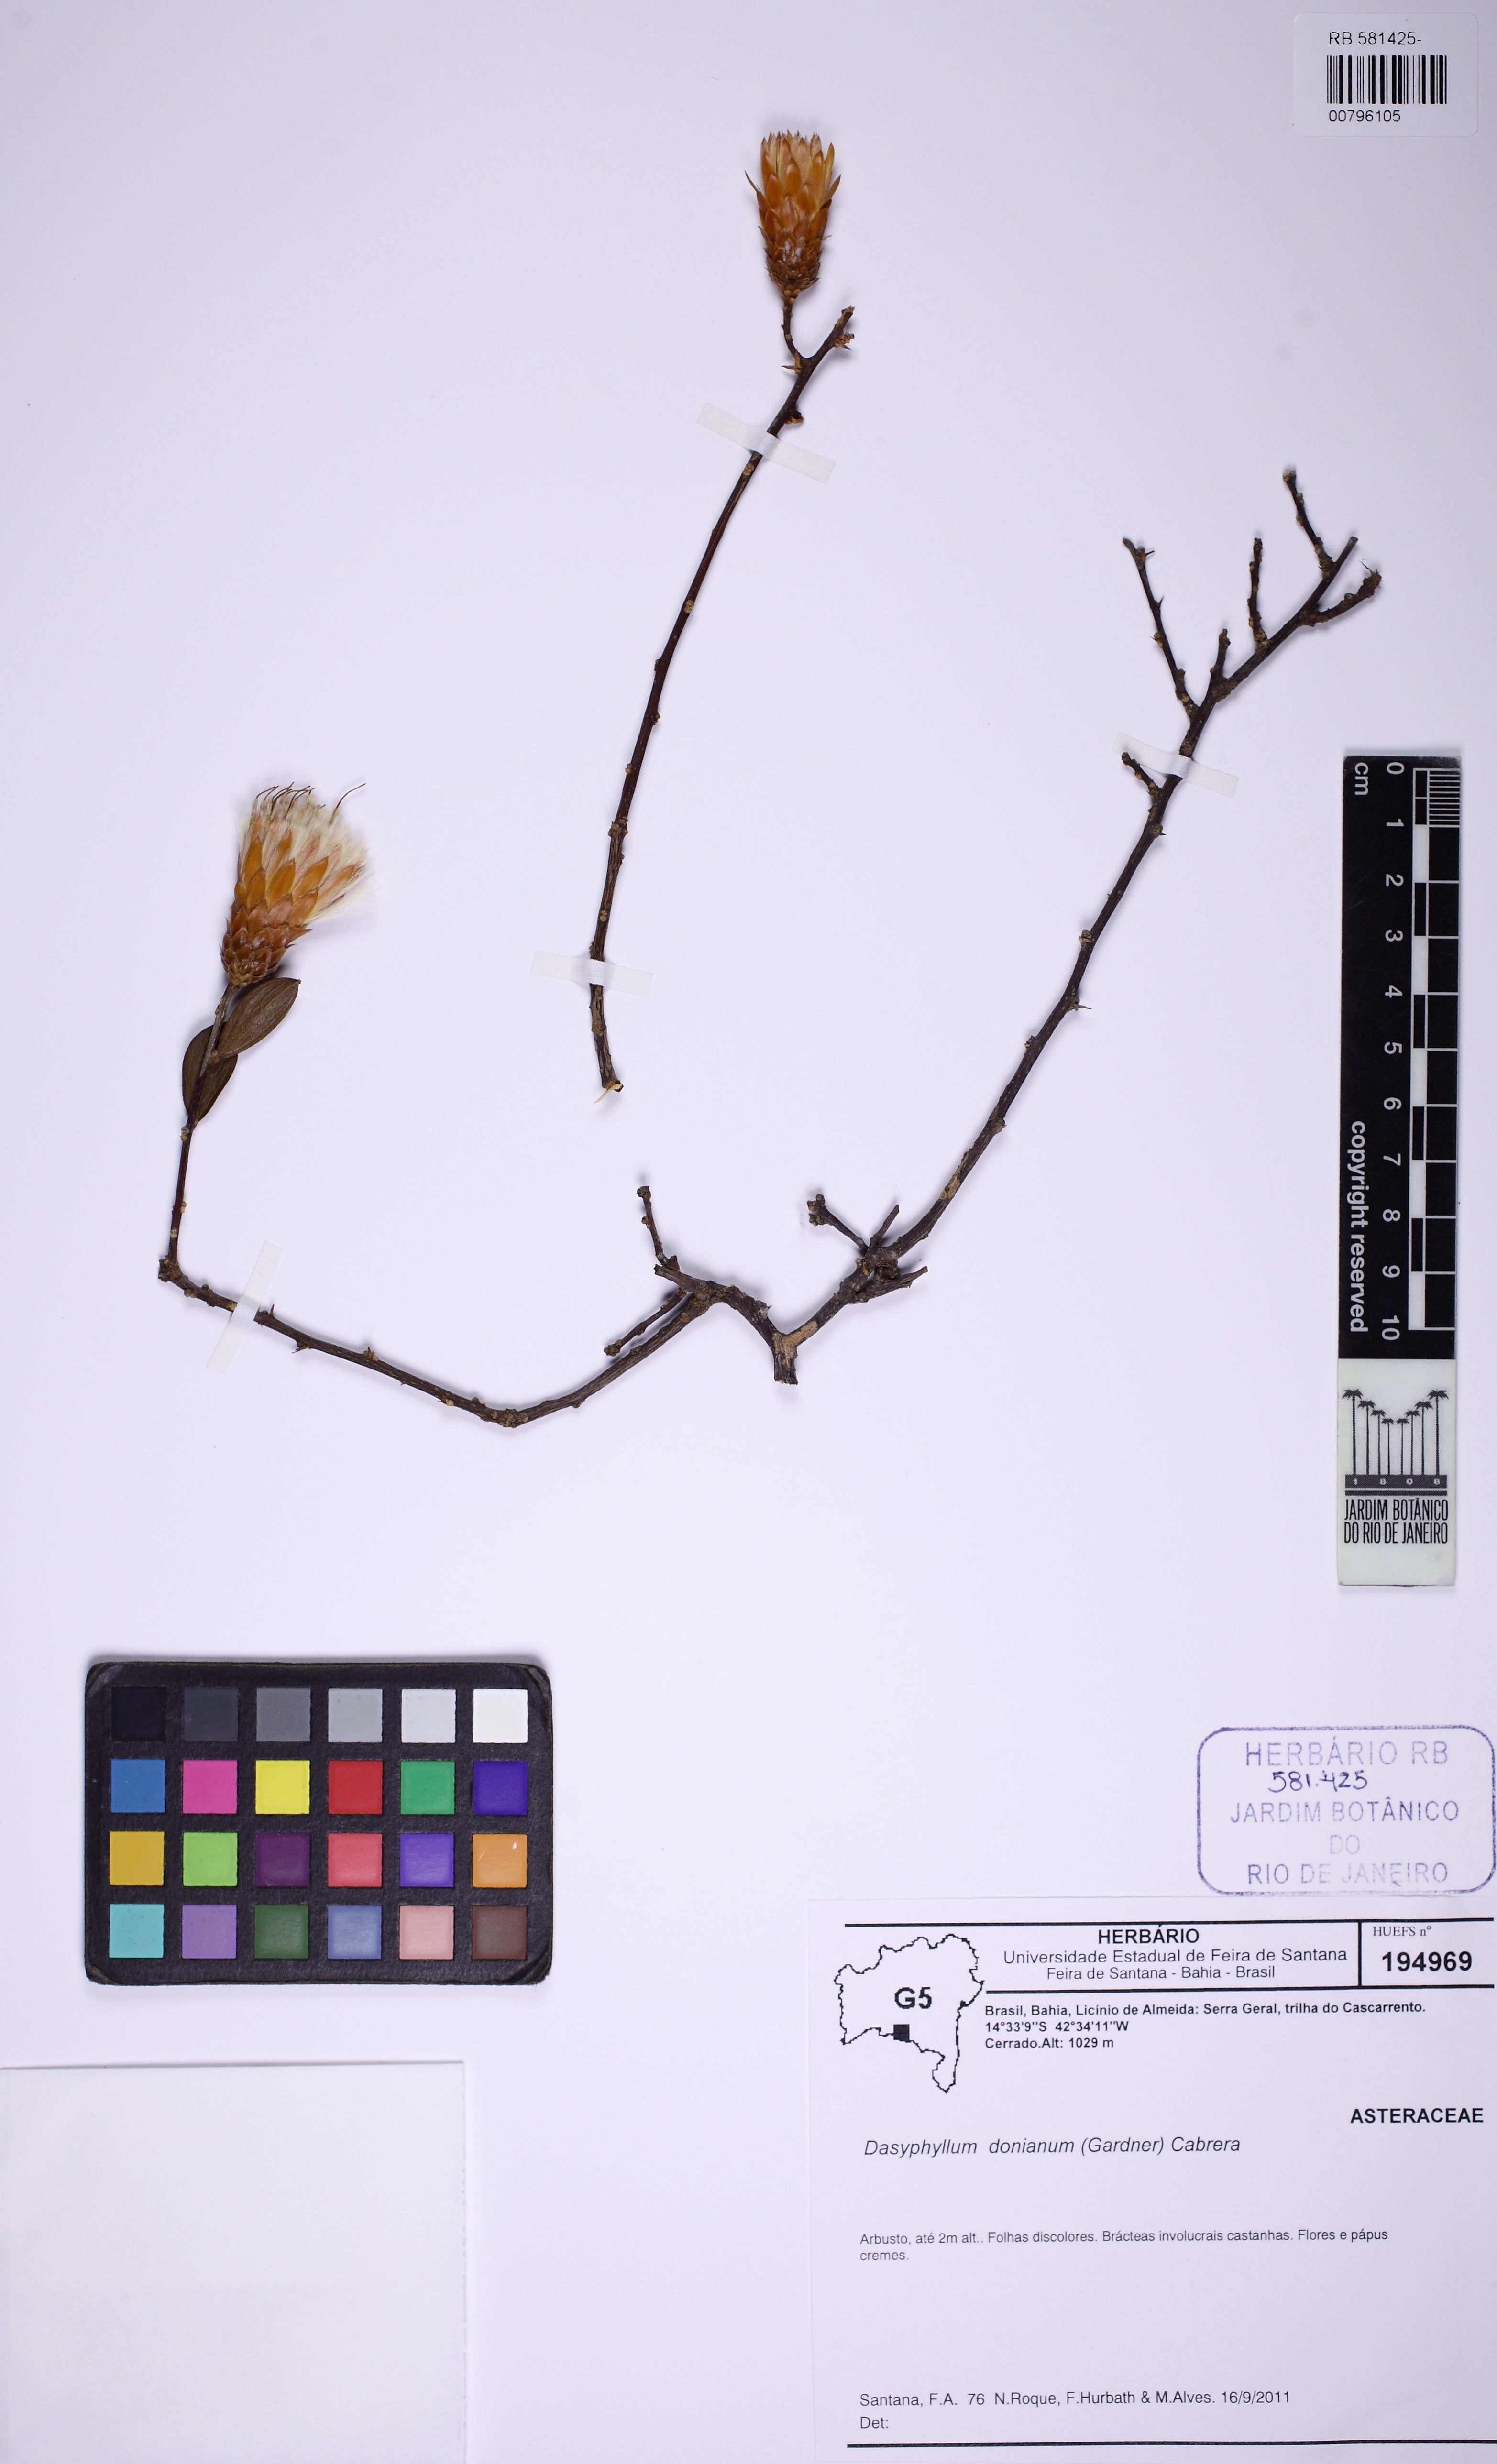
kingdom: Plantae
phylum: Tracheophyta
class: Magnoliopsida
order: Asterales
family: Asteraceae
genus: Dasyphyllum
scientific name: Dasyphyllum donianum
